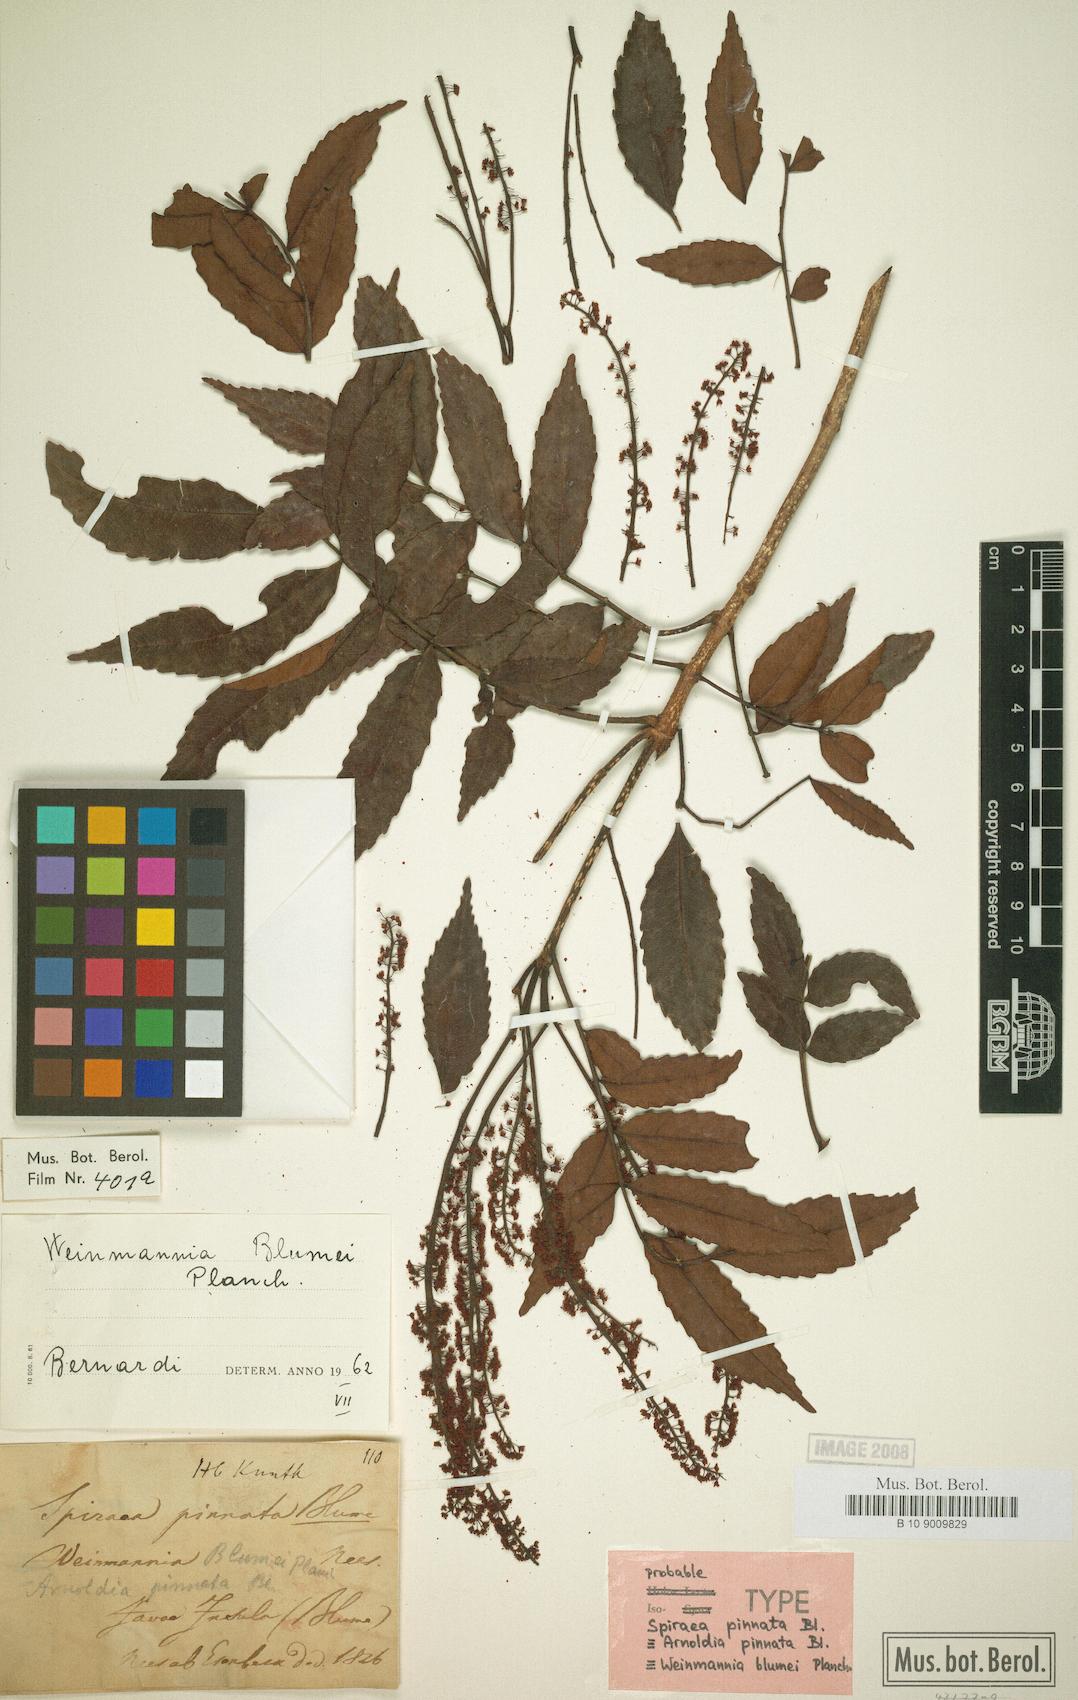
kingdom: Plantae
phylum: Tracheophyta
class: Magnoliopsida
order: Oxalidales
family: Cunoniaceae
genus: Pterophylla
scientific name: Pterophylla fraxinea
